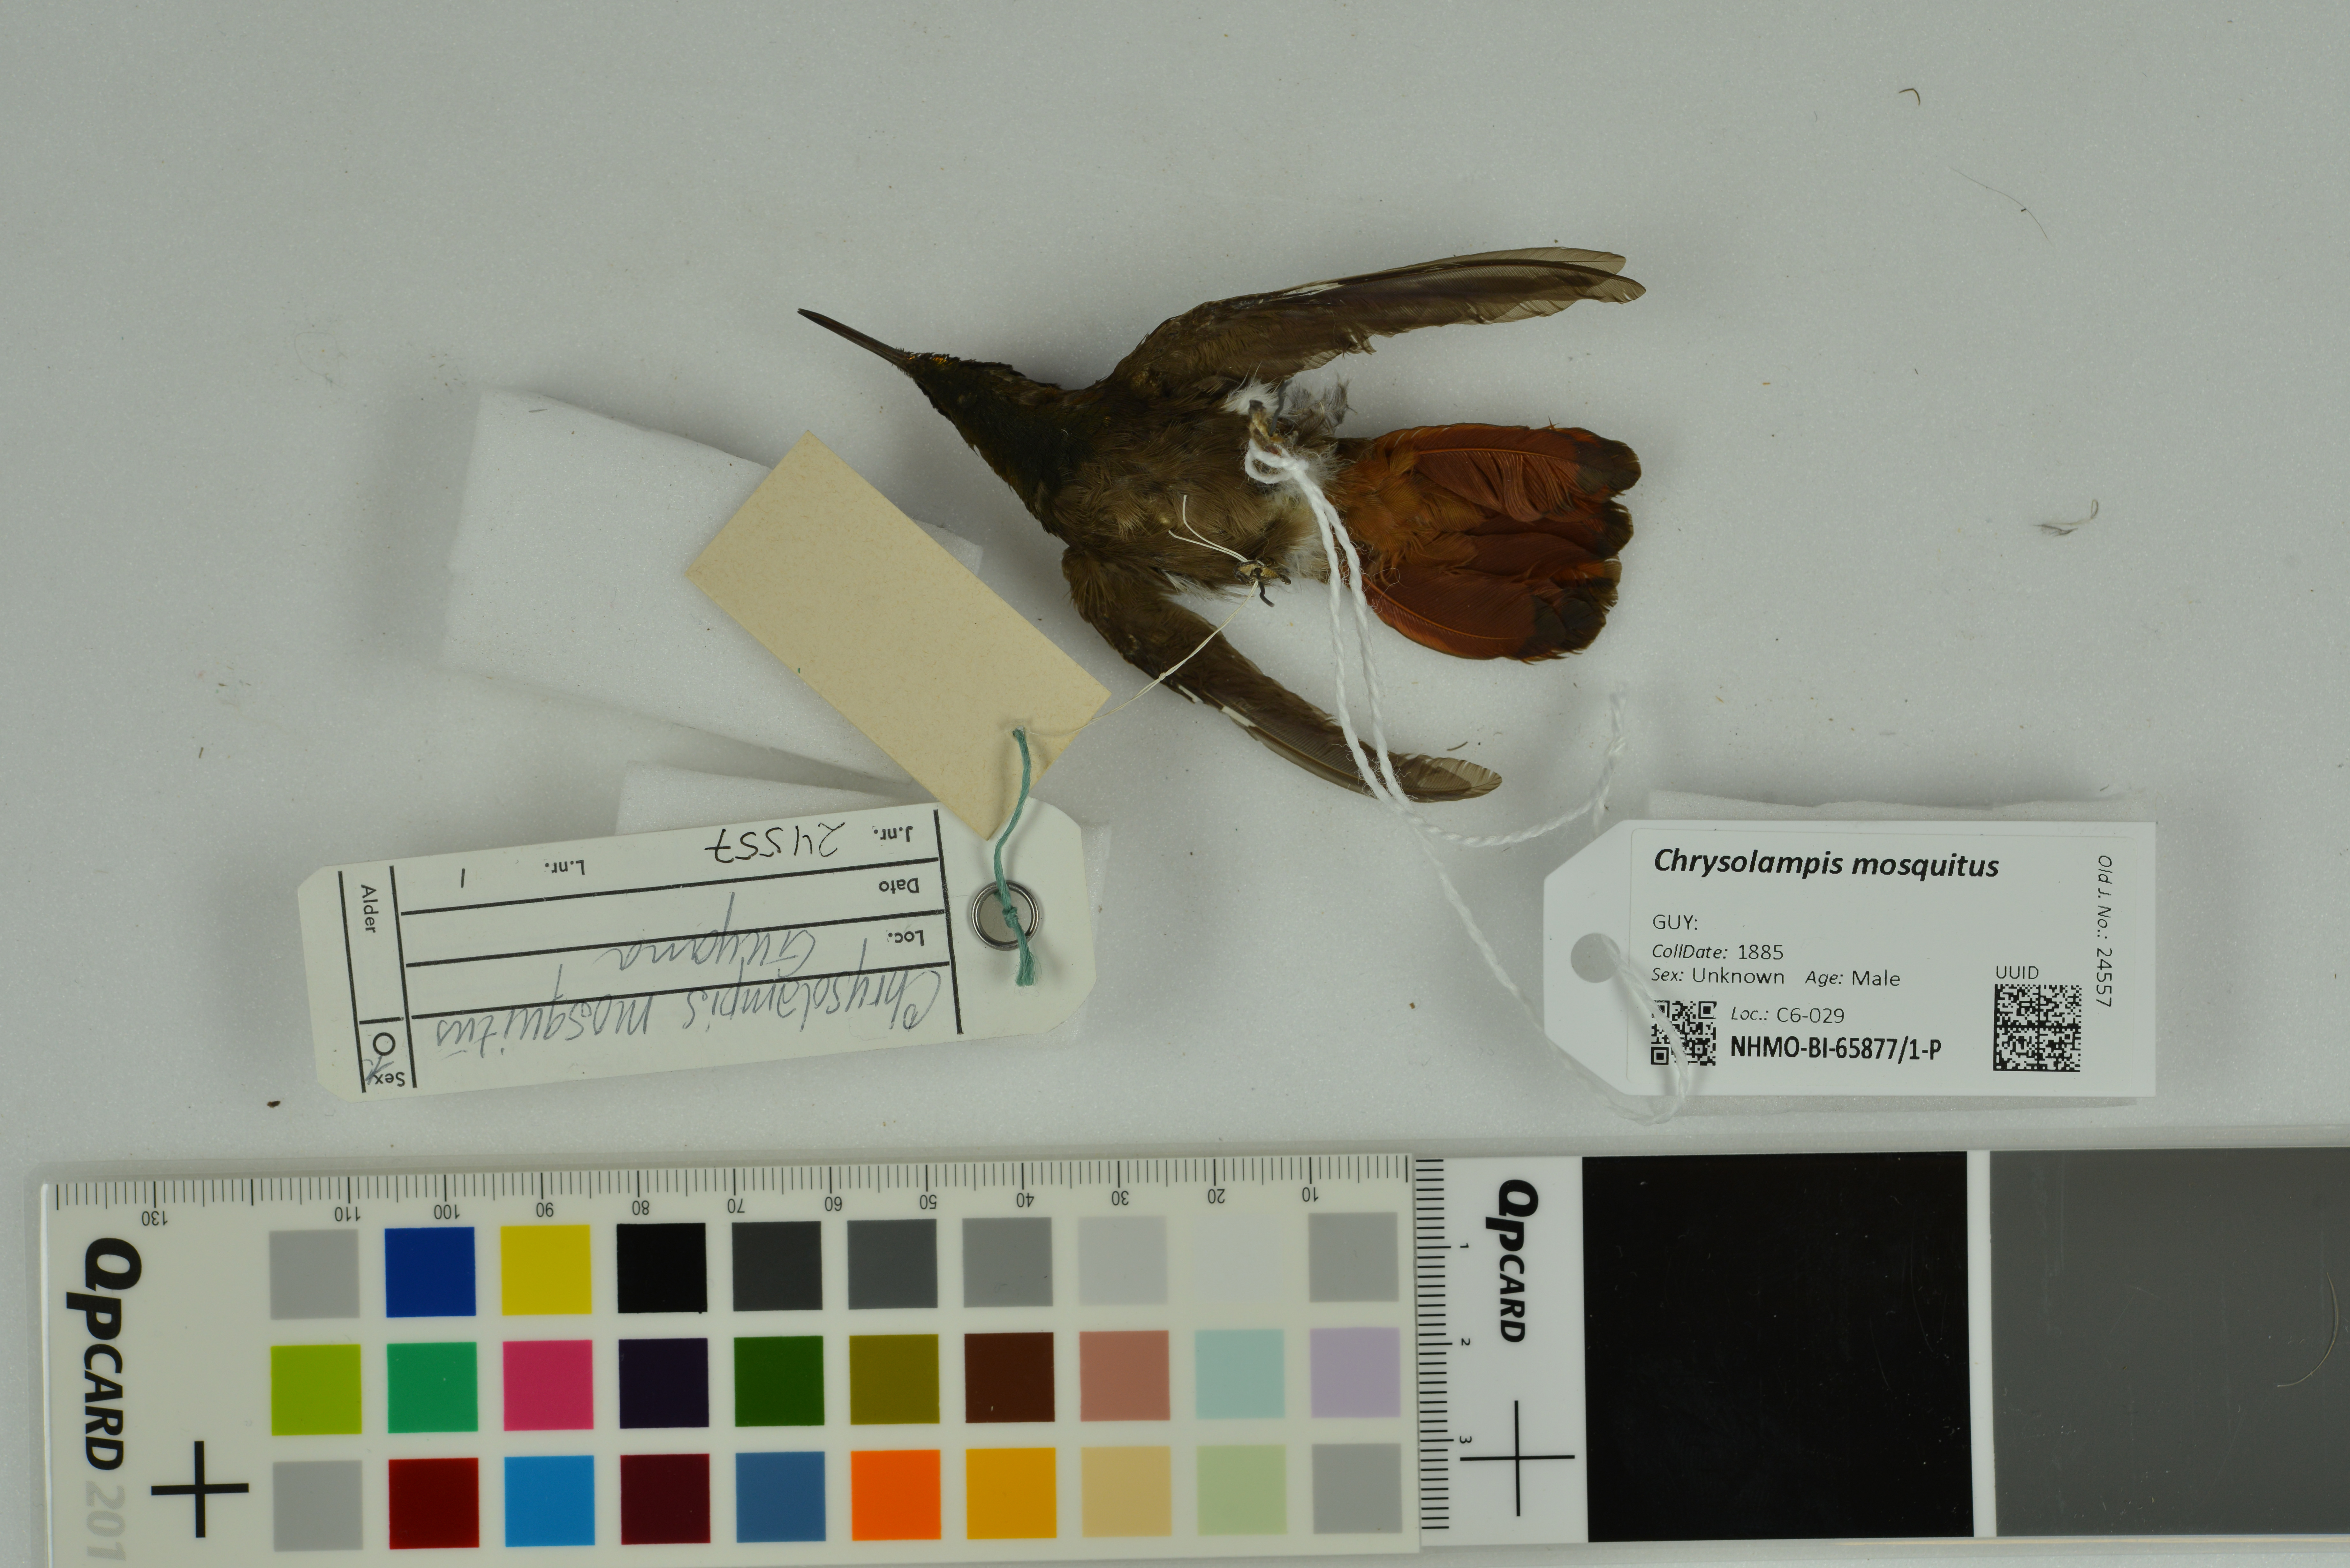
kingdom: Animalia
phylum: Chordata
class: Aves
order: Apodiformes
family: Trochilidae
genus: Chrysolampis
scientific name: Chrysolampis mosquitus
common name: Ruby-topaz hummingbird
